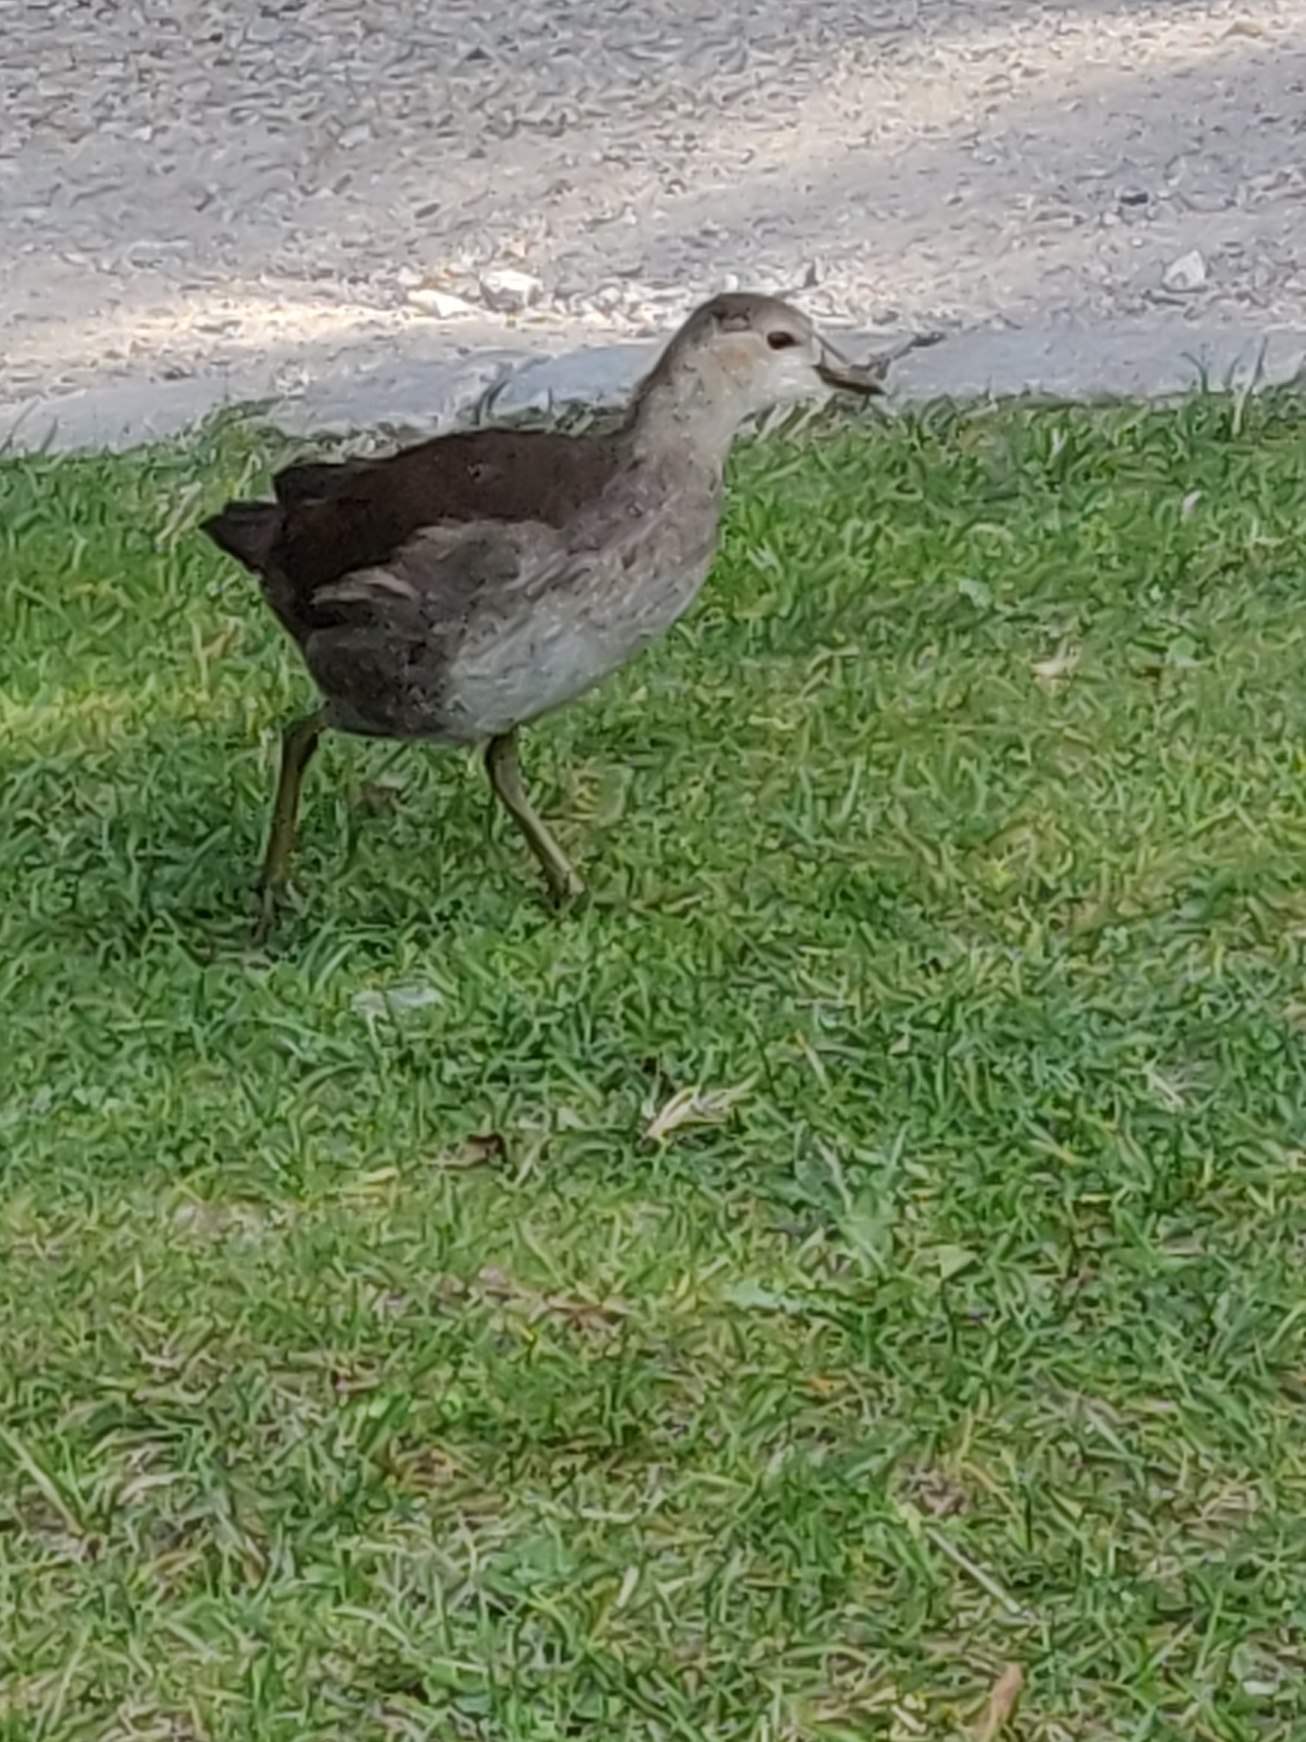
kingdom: Animalia
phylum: Chordata
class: Aves
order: Gruiformes
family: Rallidae
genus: Gallinula
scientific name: Gallinula chloropus
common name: Grønbenet rørhøne
